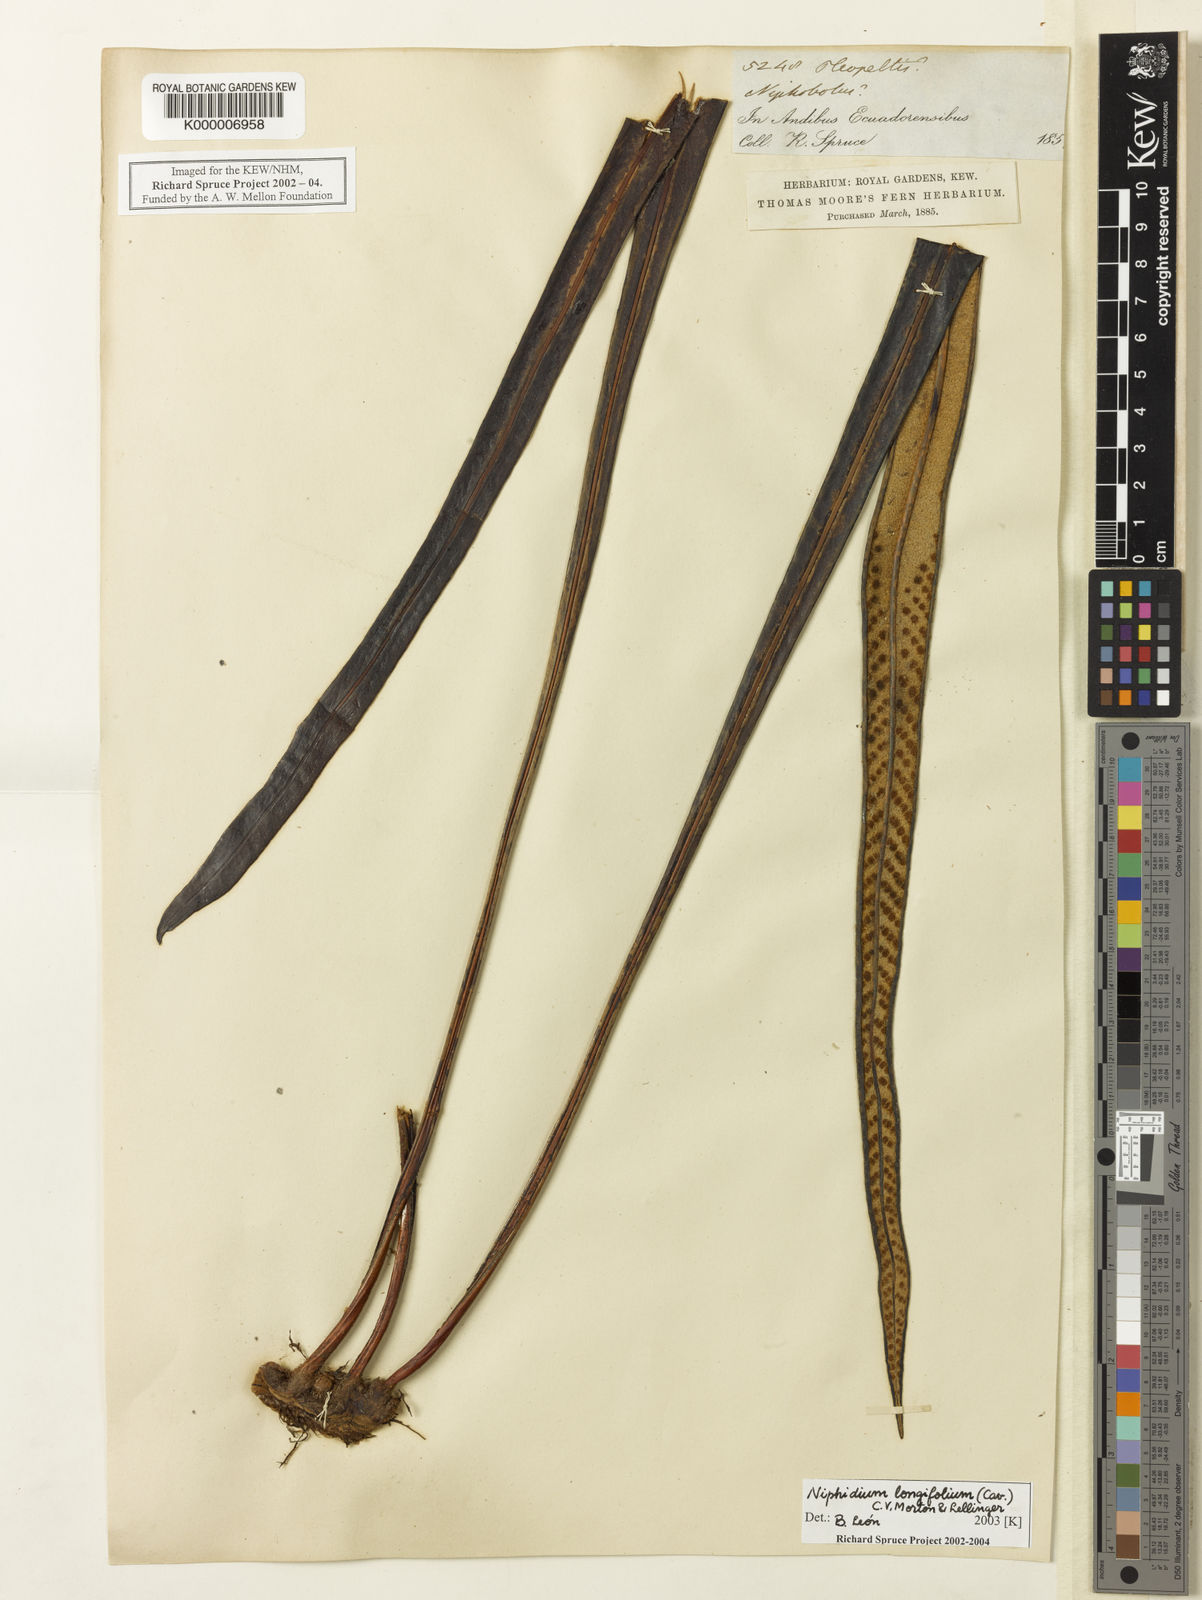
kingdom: Plantae
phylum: Tracheophyta
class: Polypodiopsida
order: Polypodiales
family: Polypodiaceae
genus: Niphidium
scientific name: Niphidium longifolium
